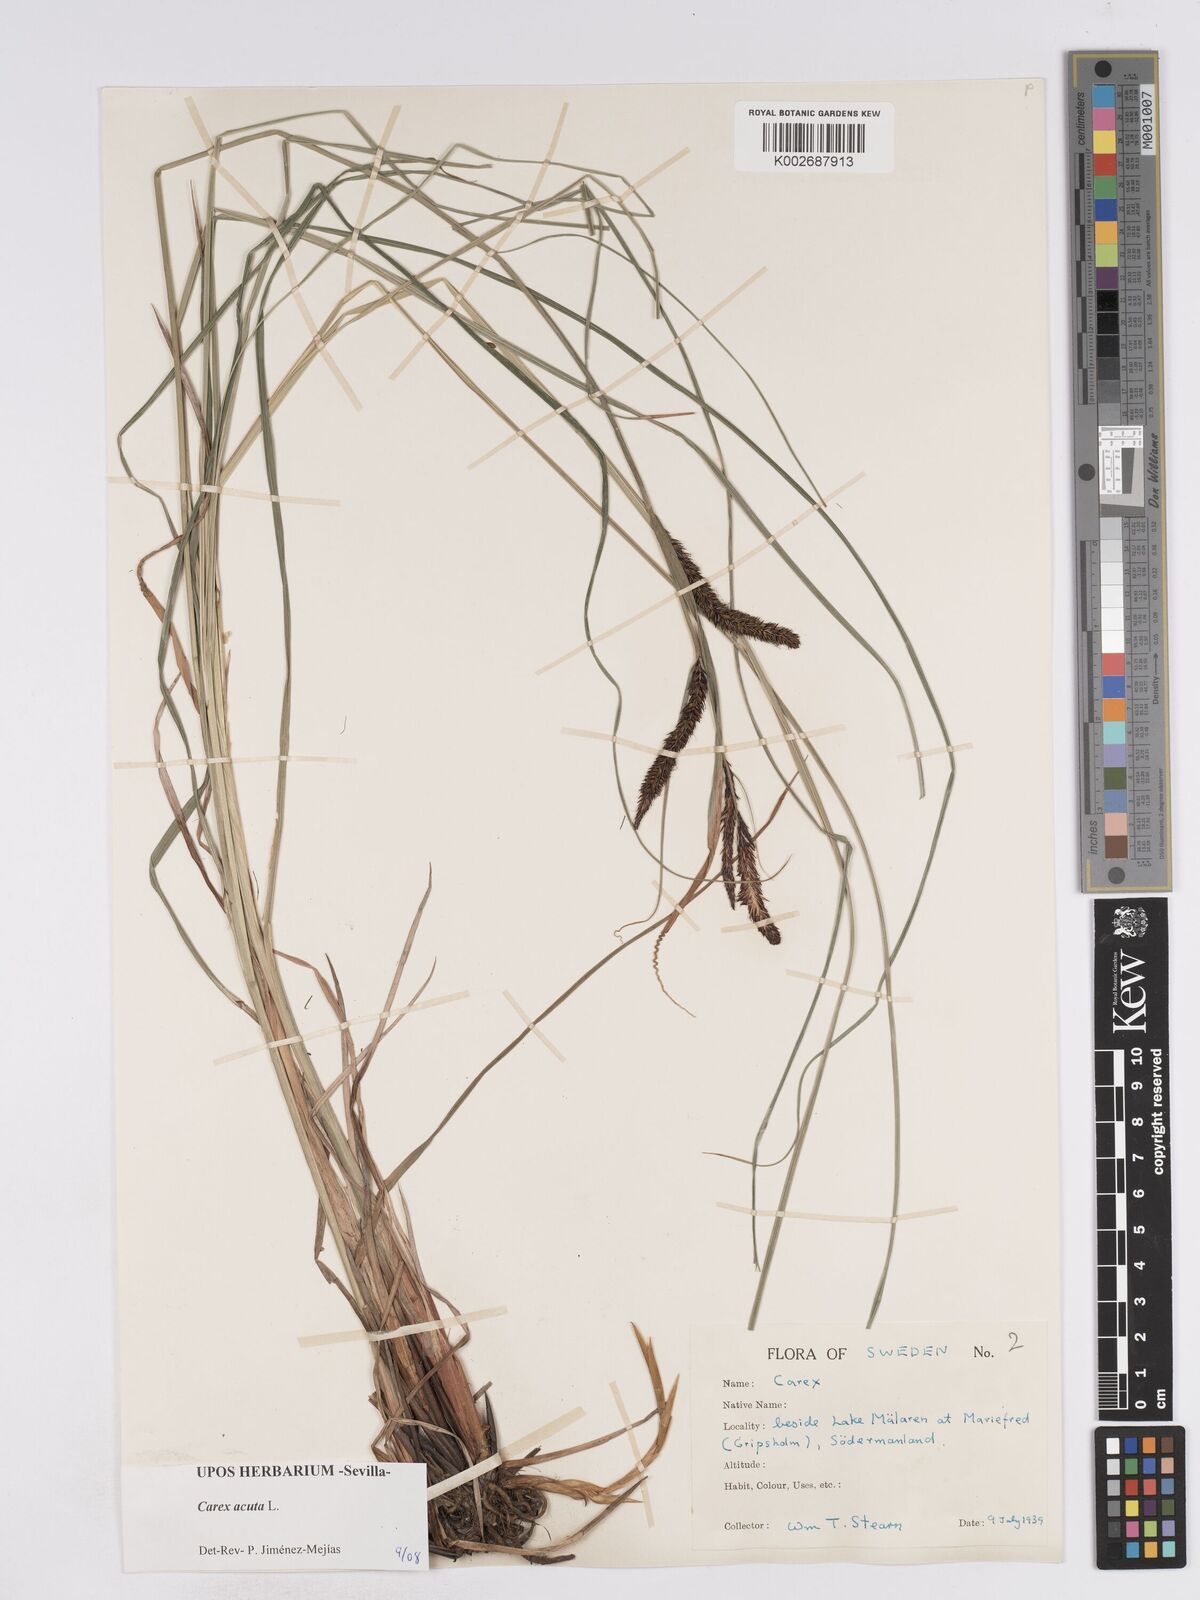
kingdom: Plantae
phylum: Tracheophyta
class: Liliopsida
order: Poales
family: Cyperaceae
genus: Carex
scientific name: Carex acuta
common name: Slender tufted-sedge
